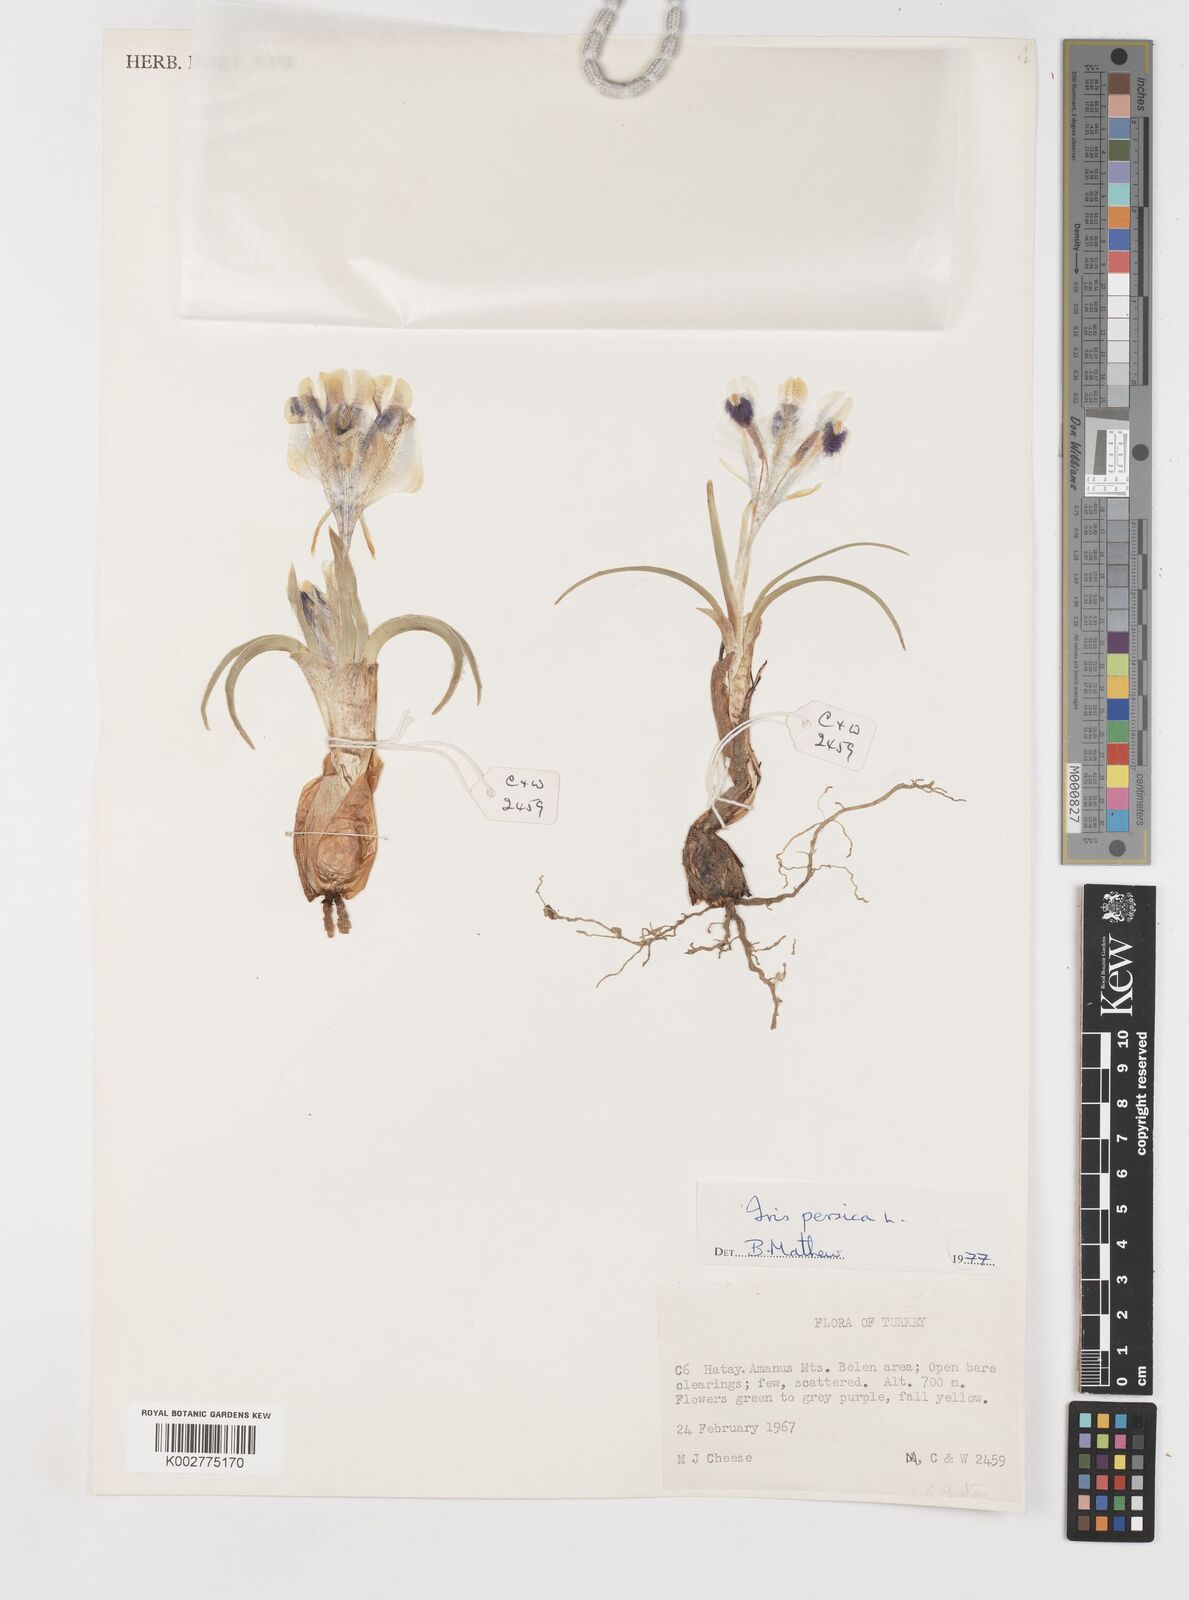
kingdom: Plantae
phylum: Tracheophyta
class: Liliopsida
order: Asparagales
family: Iridaceae
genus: Iris
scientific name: Iris persica
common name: Persian iris
